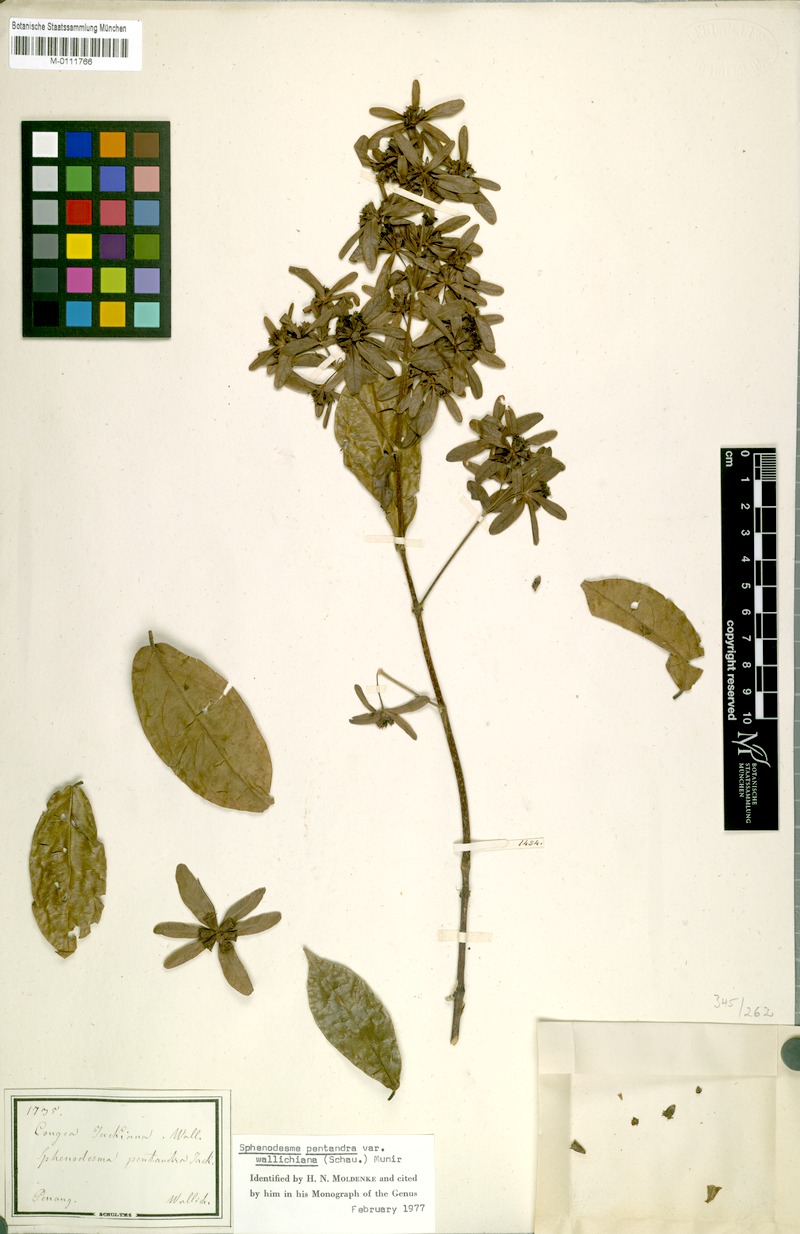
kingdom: Plantae
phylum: Tracheophyta
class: Magnoliopsida
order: Lamiales
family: Lamiaceae
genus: Sphenodesme
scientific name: Sphenodesme pentandra
